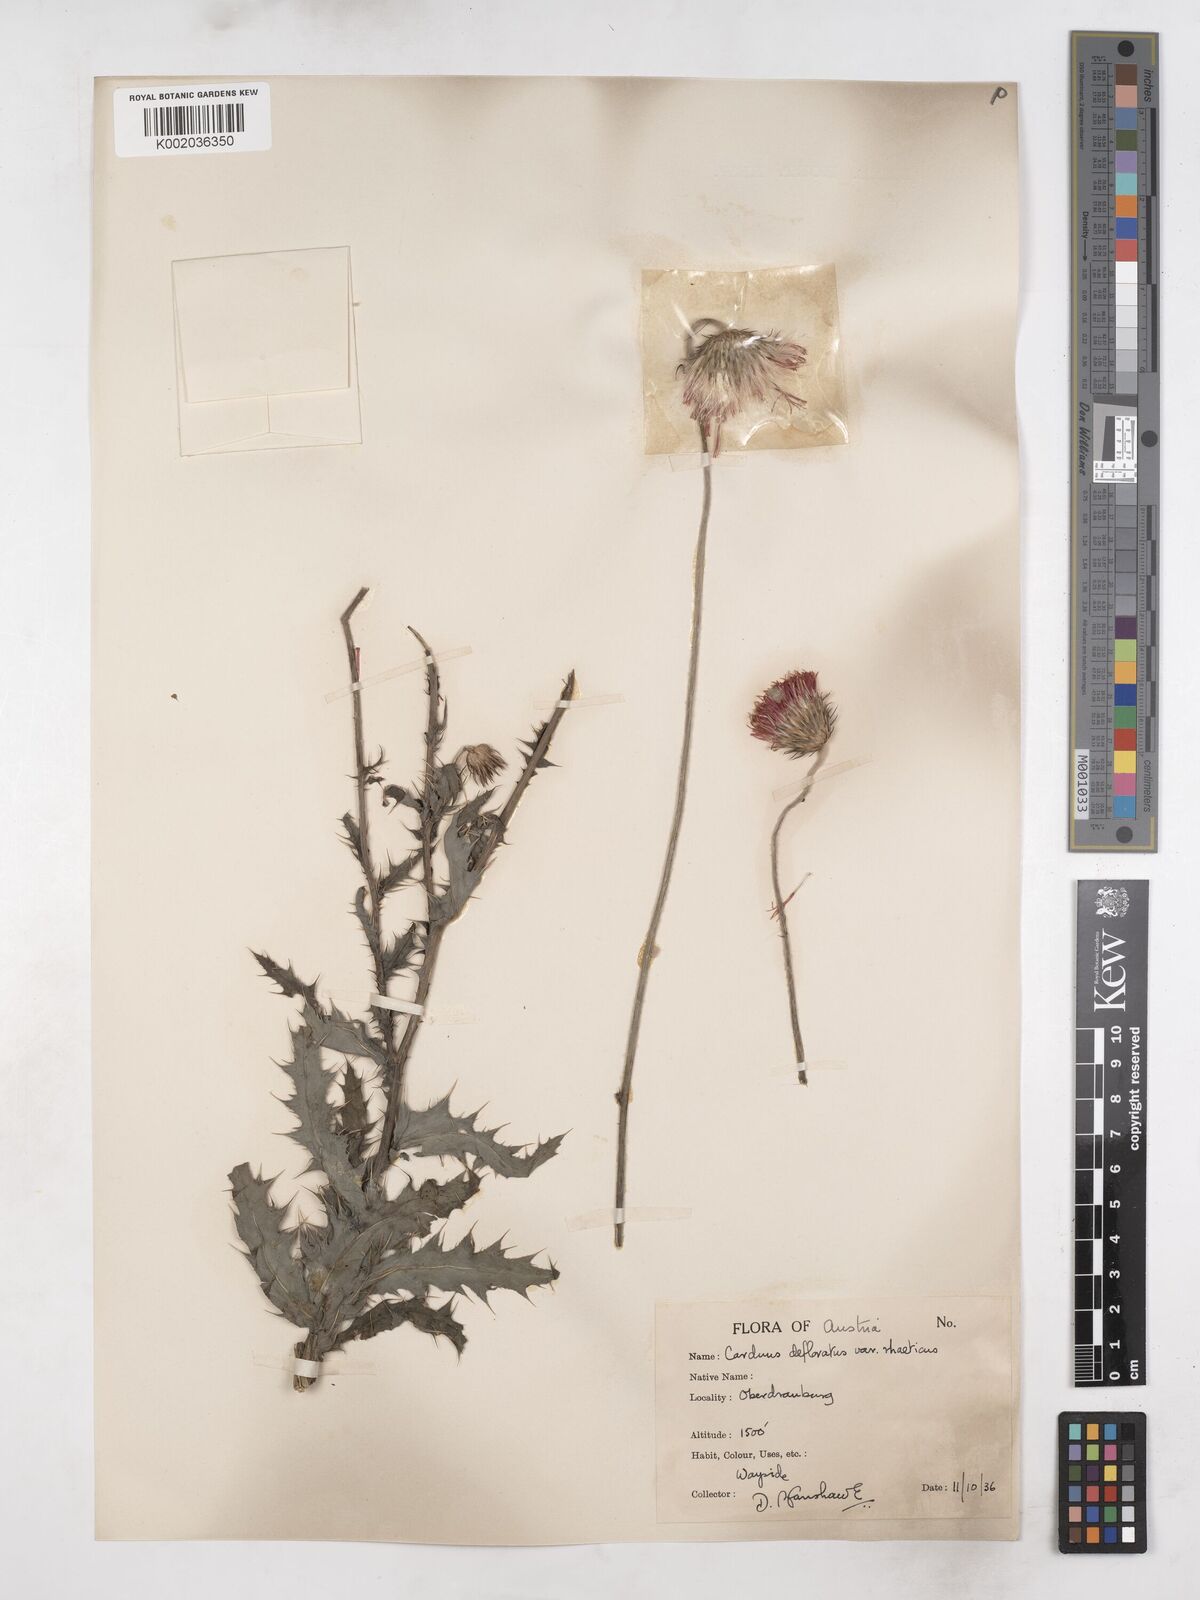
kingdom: Plantae
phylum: Tracheophyta
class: Magnoliopsida
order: Asterales
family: Asteraceae
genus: Carduus
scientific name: Carduus defloratus
